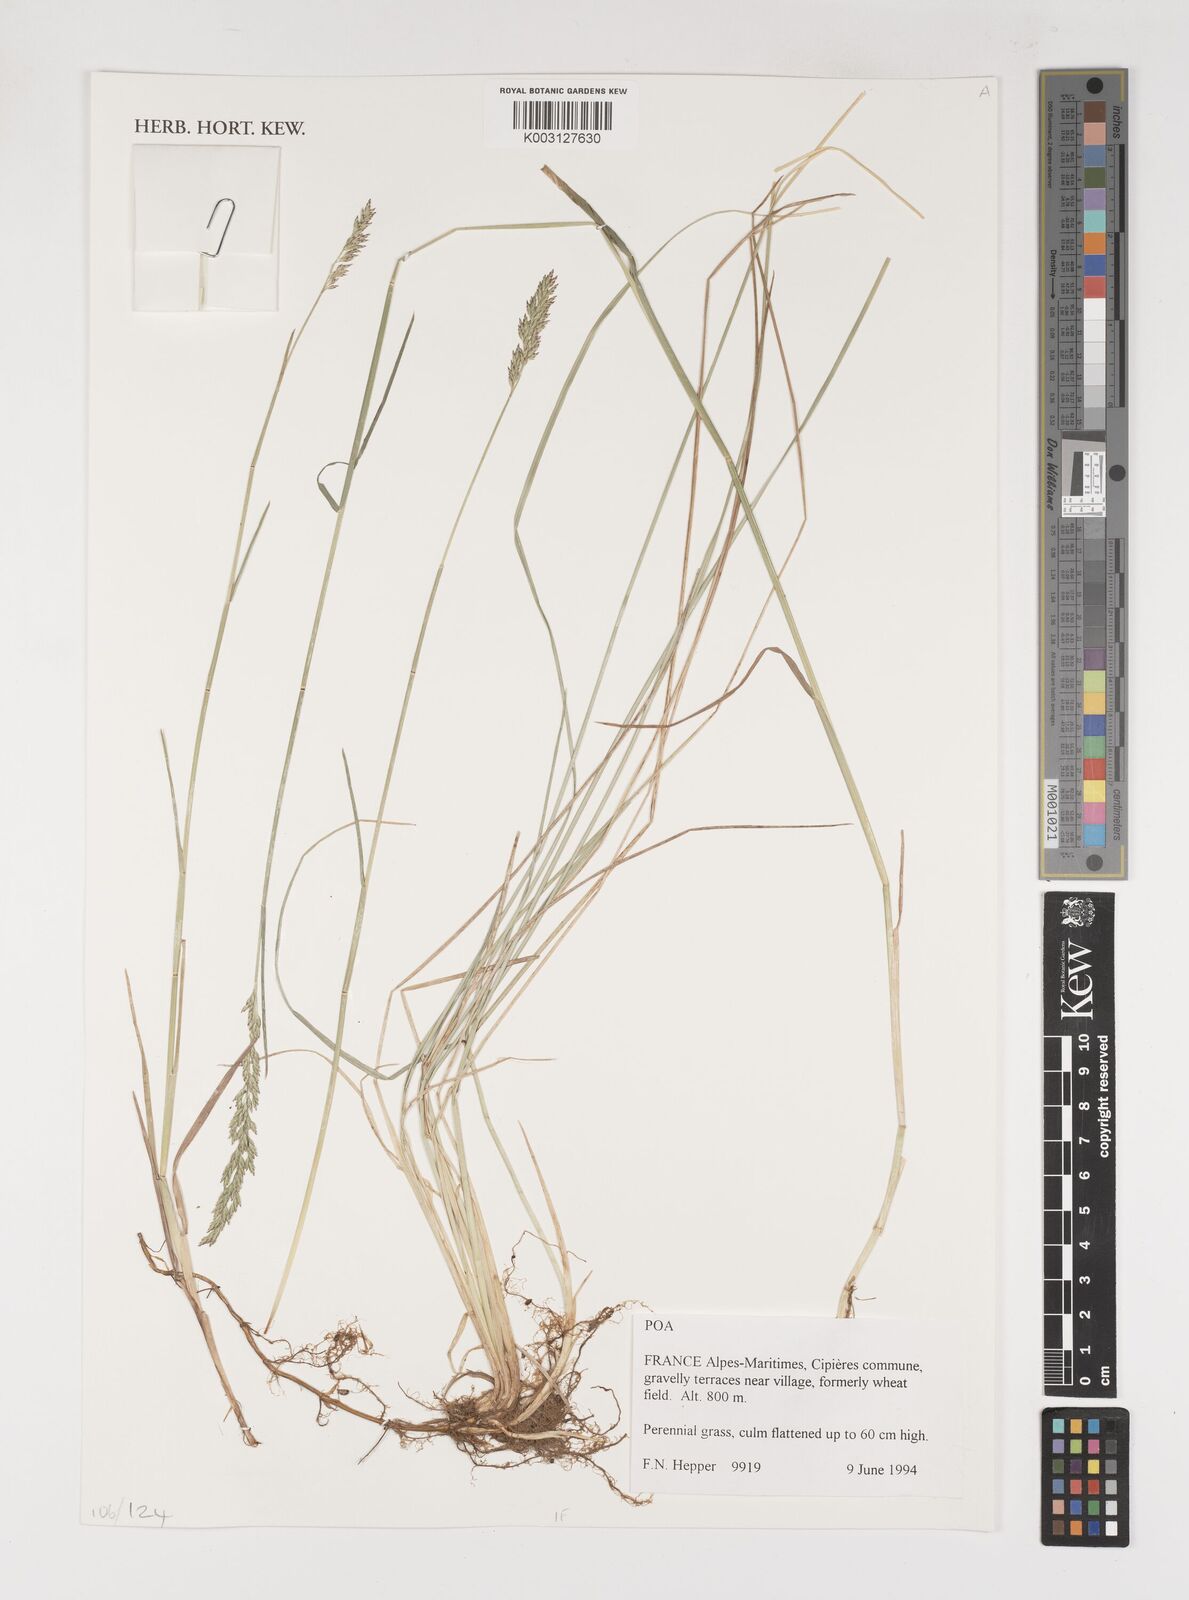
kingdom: Plantae
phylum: Tracheophyta
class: Liliopsida
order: Poales
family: Poaceae
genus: Poa
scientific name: Poa
